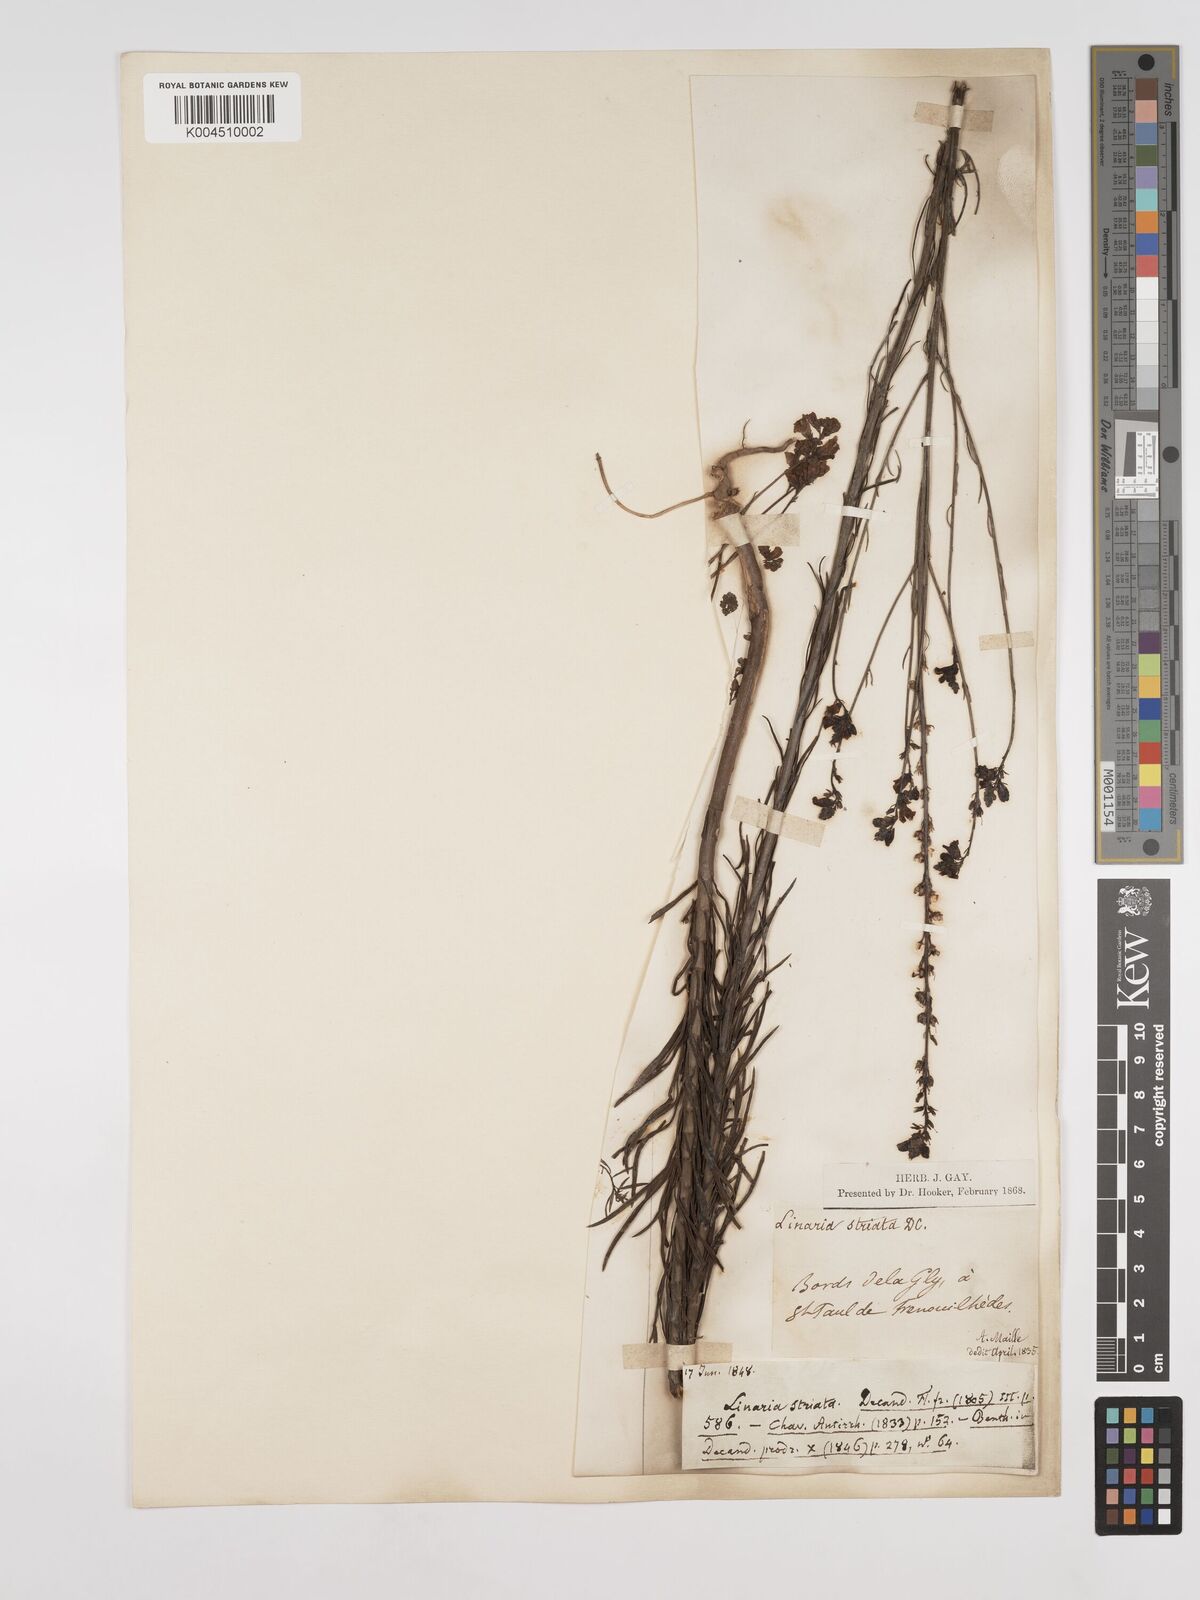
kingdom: Plantae
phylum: Tracheophyta
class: Magnoliopsida
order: Lamiales
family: Plantaginaceae
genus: Linaria
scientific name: Linaria repens
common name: Pale toadflax
